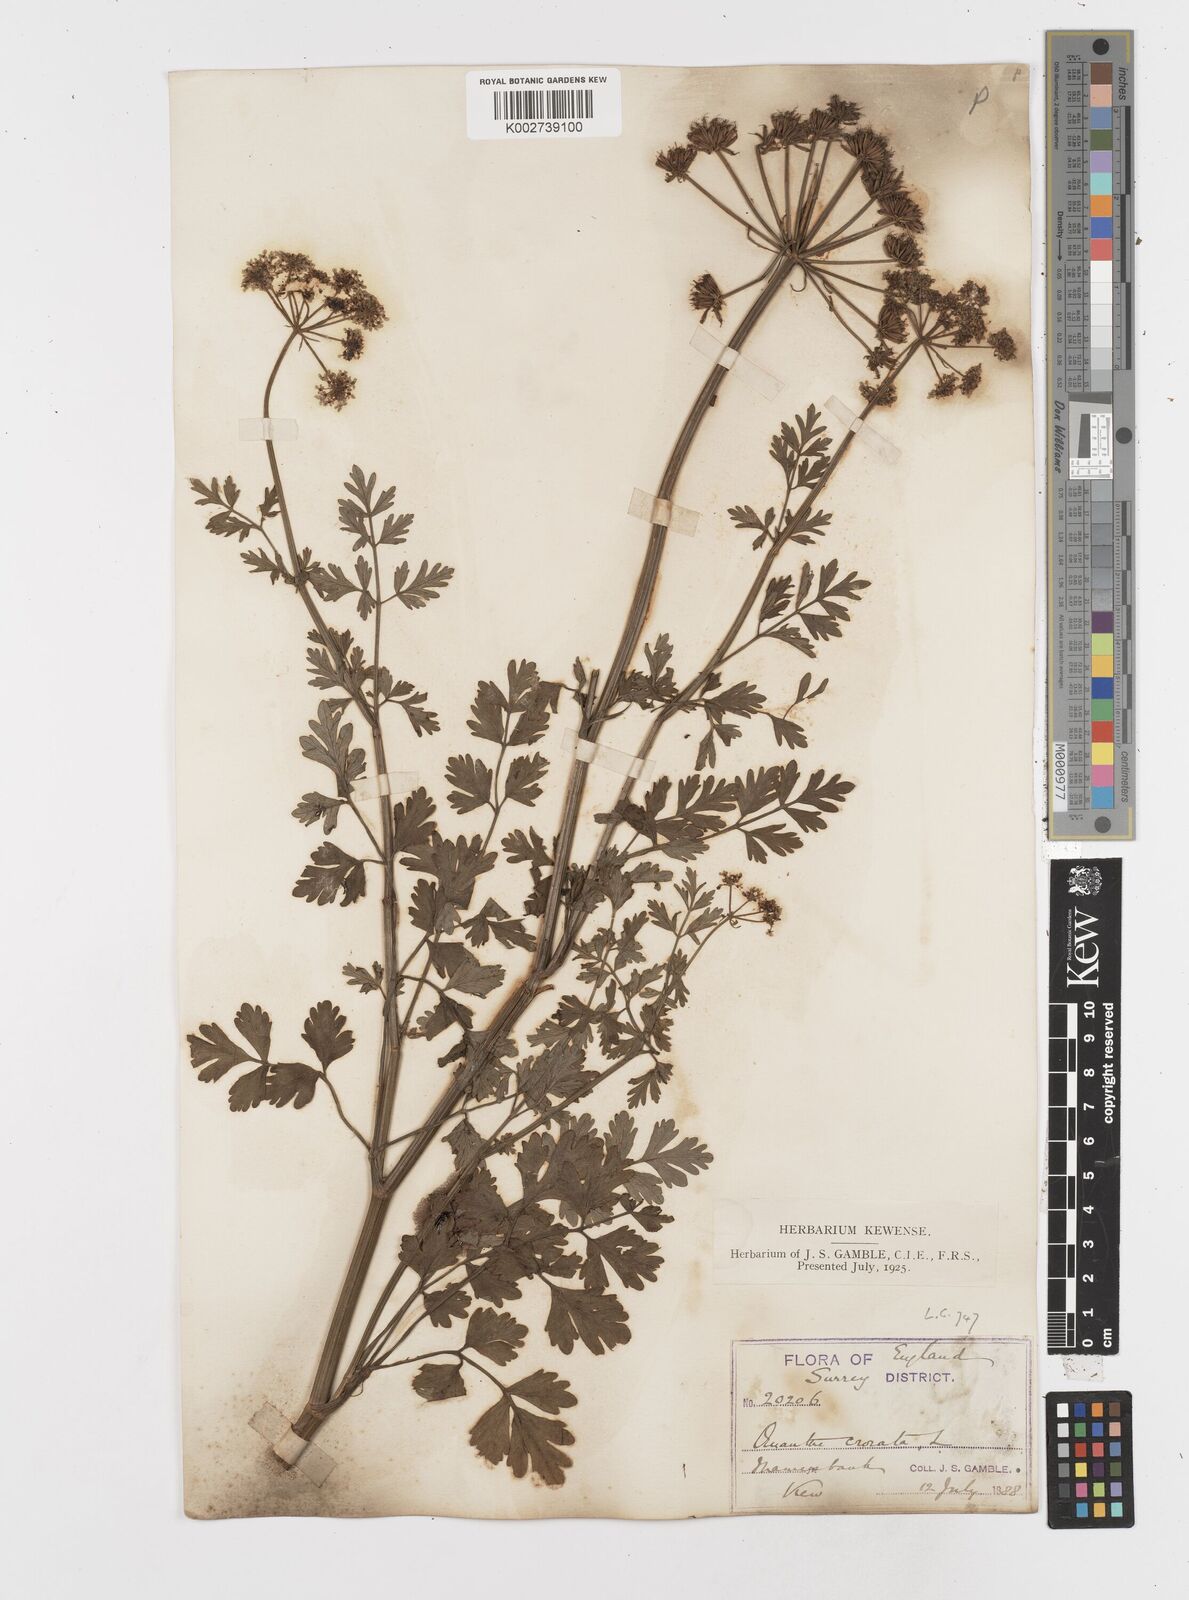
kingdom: Plantae
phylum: Tracheophyta
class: Magnoliopsida
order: Apiales
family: Apiaceae
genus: Oenanthe
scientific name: Oenanthe crocata
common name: Hemlock water-dropwort
